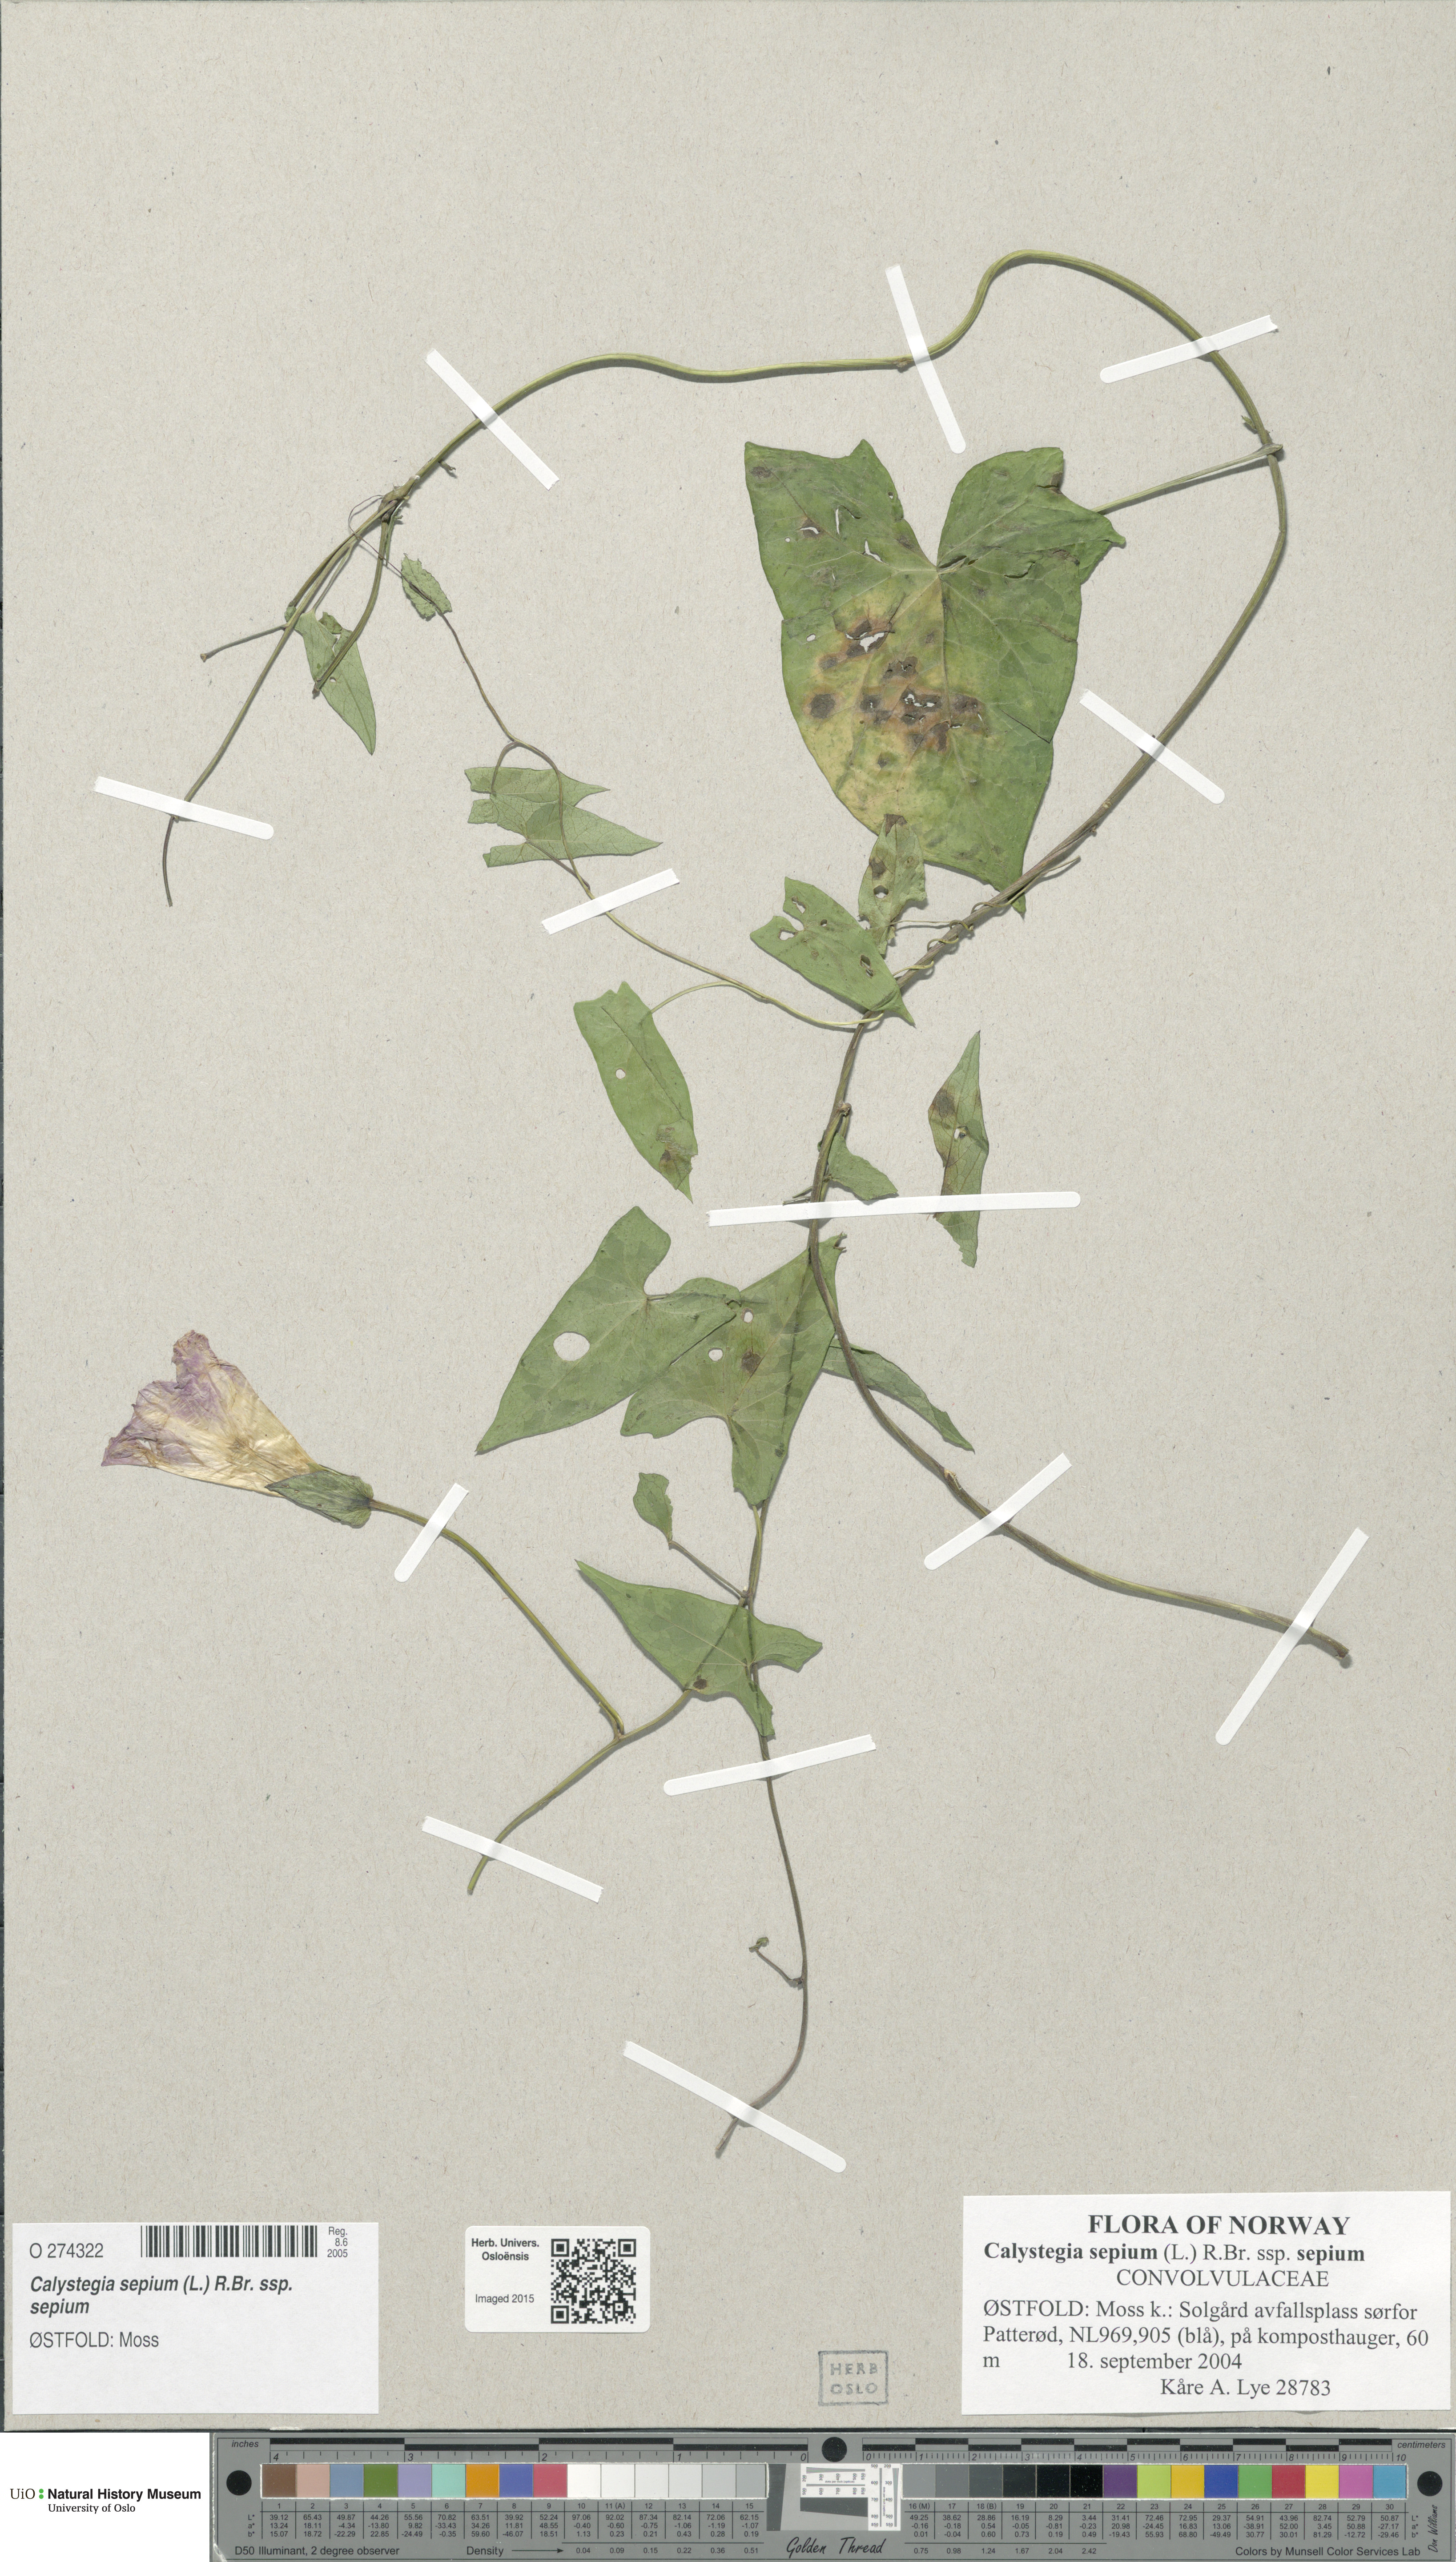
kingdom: Plantae
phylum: Tracheophyta
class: Magnoliopsida
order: Solanales
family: Convolvulaceae
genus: Calystegia
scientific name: Calystegia sepium
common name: Hedge bindweed
